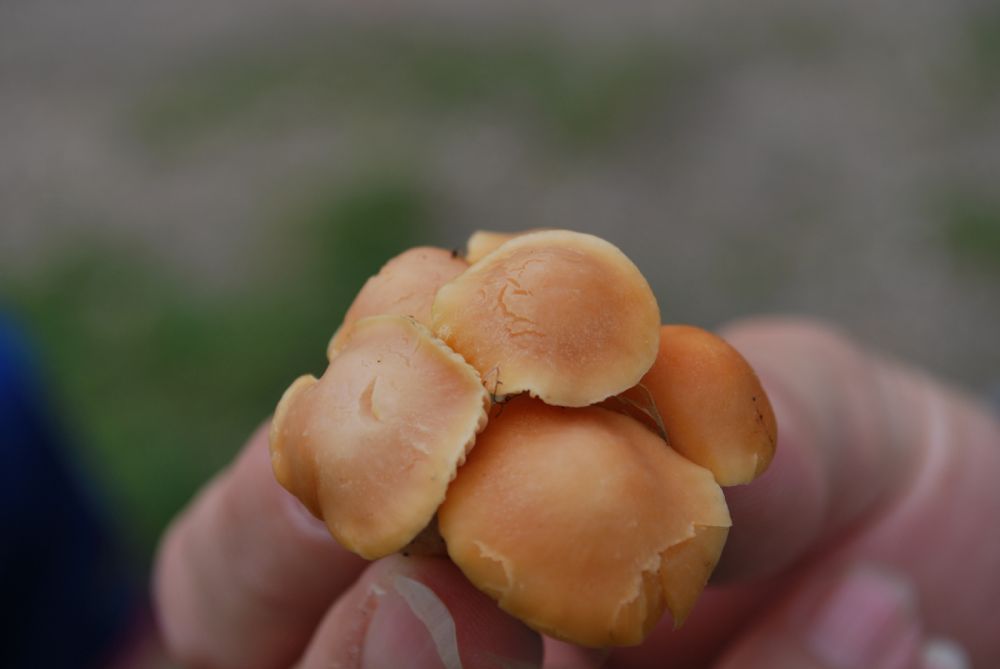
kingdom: Fungi
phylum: Basidiomycota
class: Agaricomycetes
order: Agaricales
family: Hygrophoraceae
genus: Cuphophyllus
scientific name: Cuphophyllus pratensis
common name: eng-vokshat
